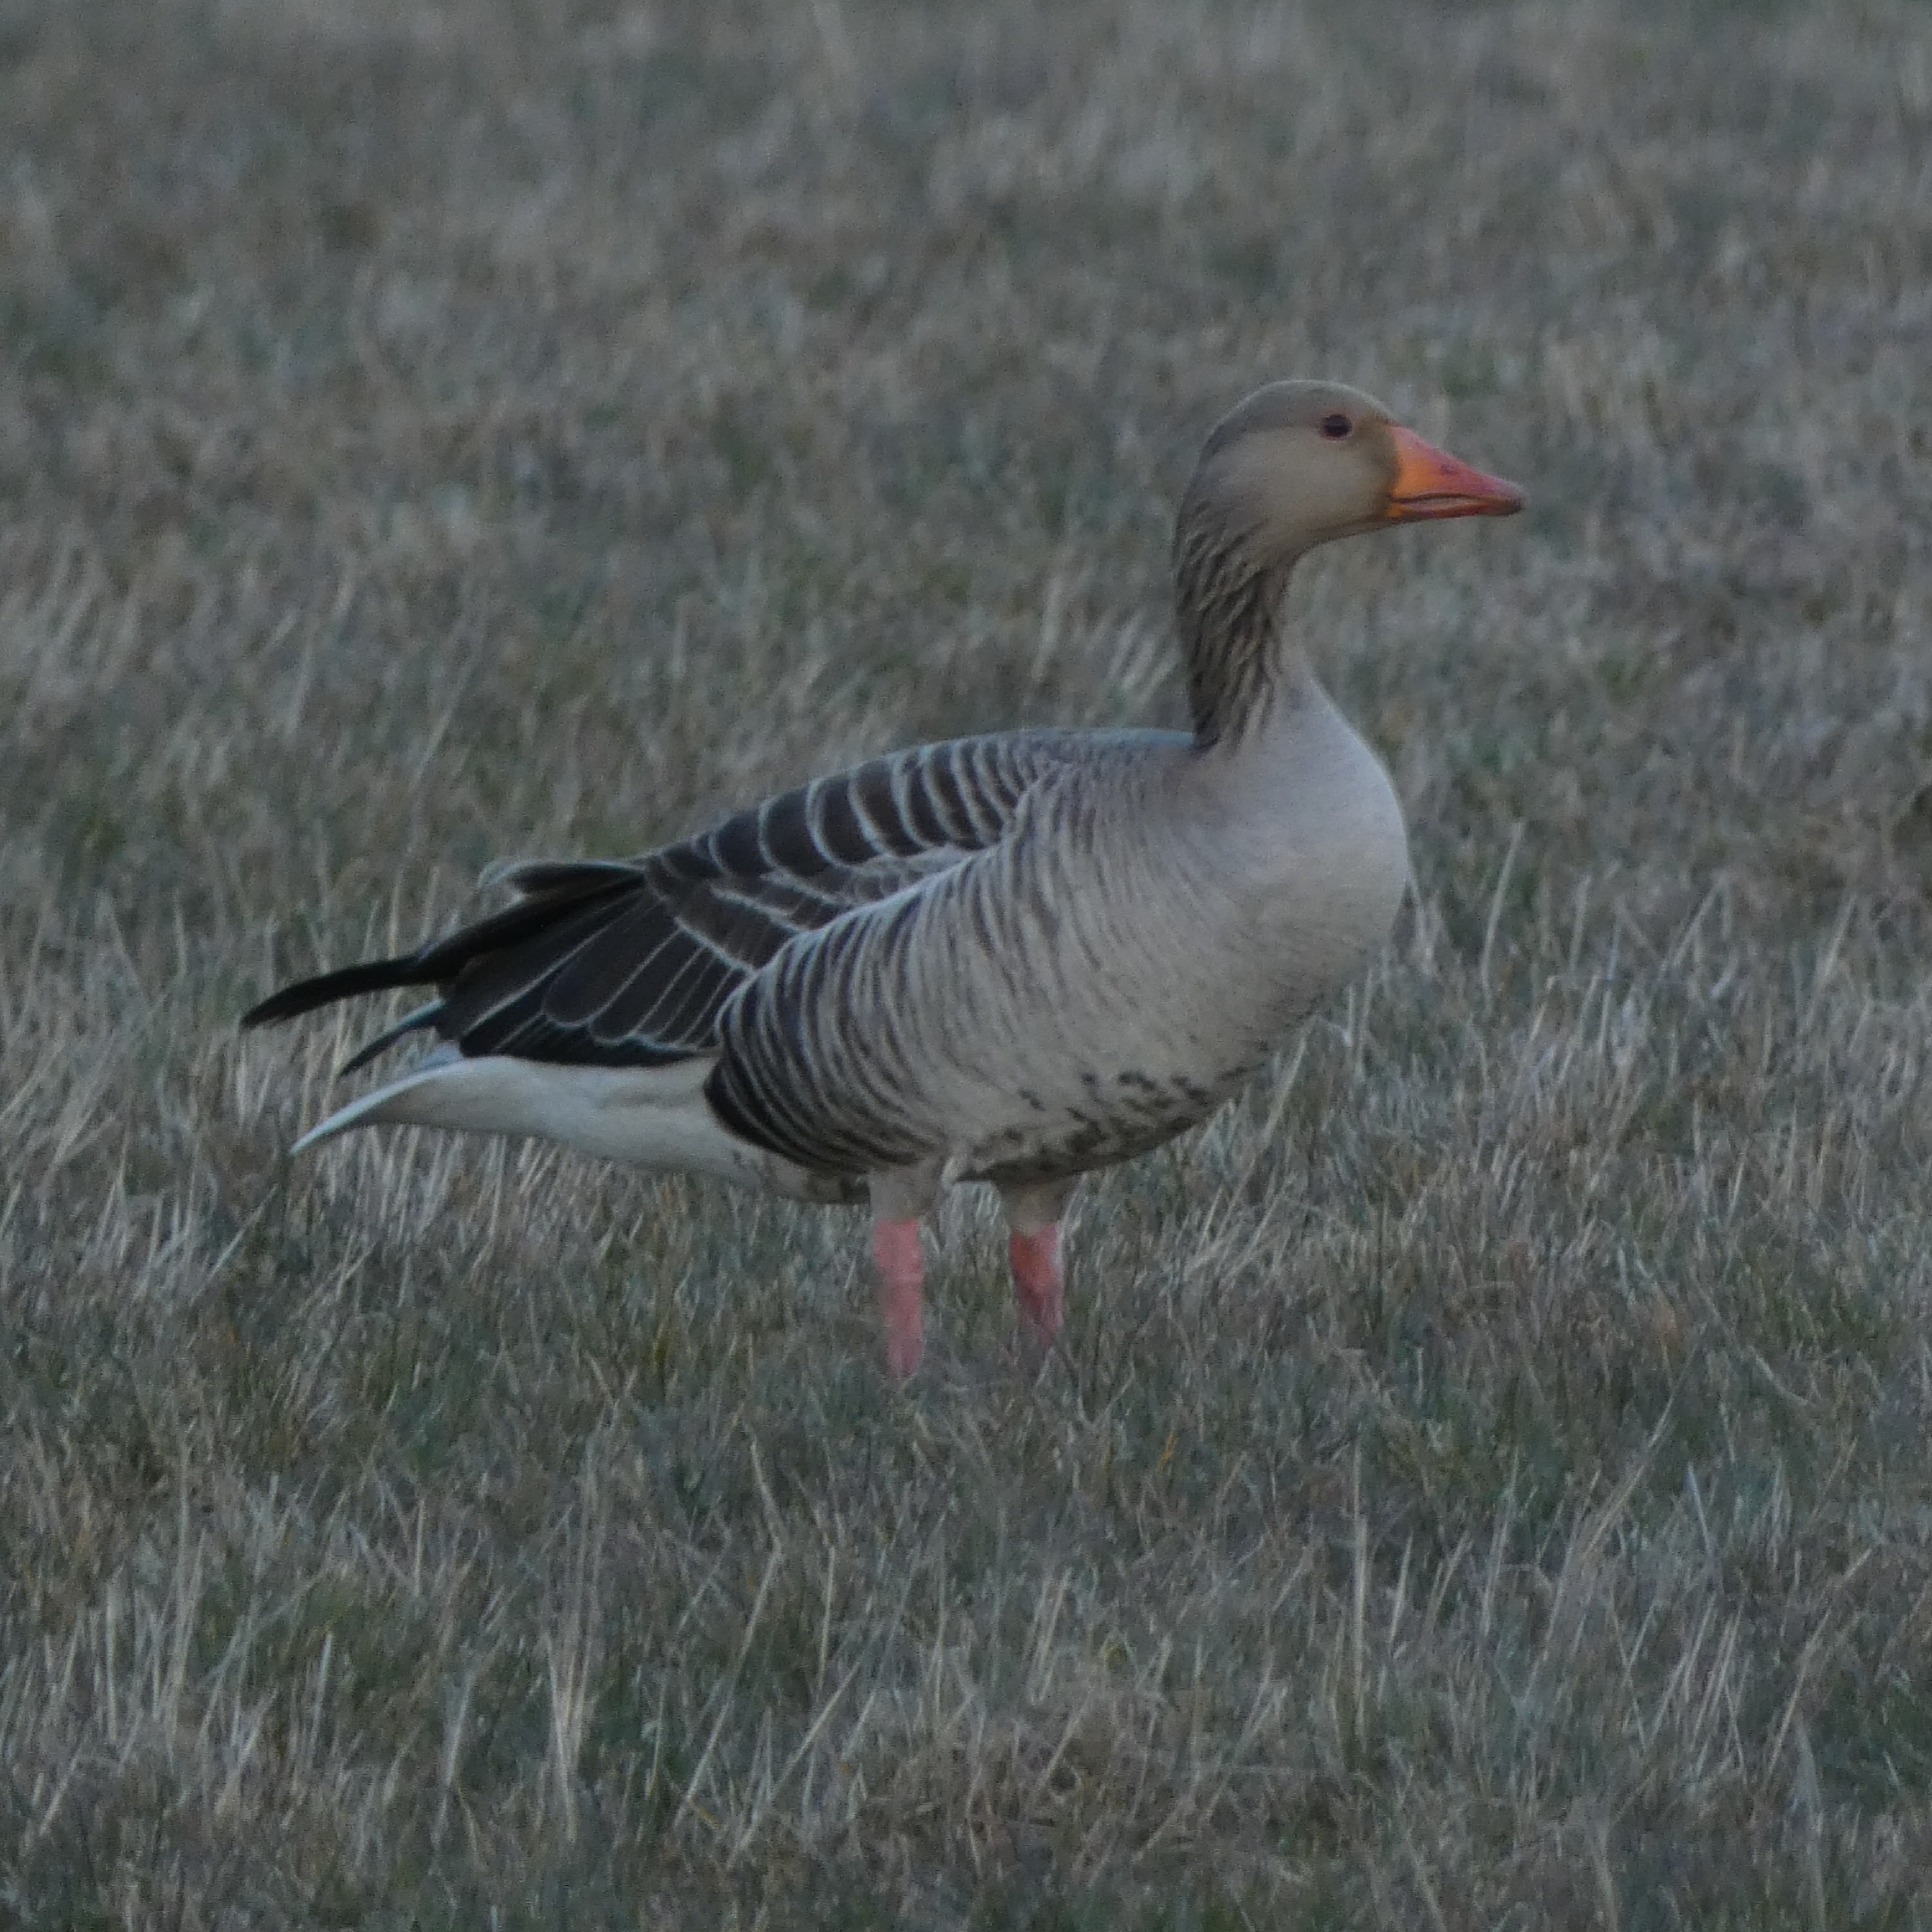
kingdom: Animalia
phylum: Chordata
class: Aves
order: Anseriformes
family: Anatidae
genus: Anser
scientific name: Anser anser
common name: Grågås
